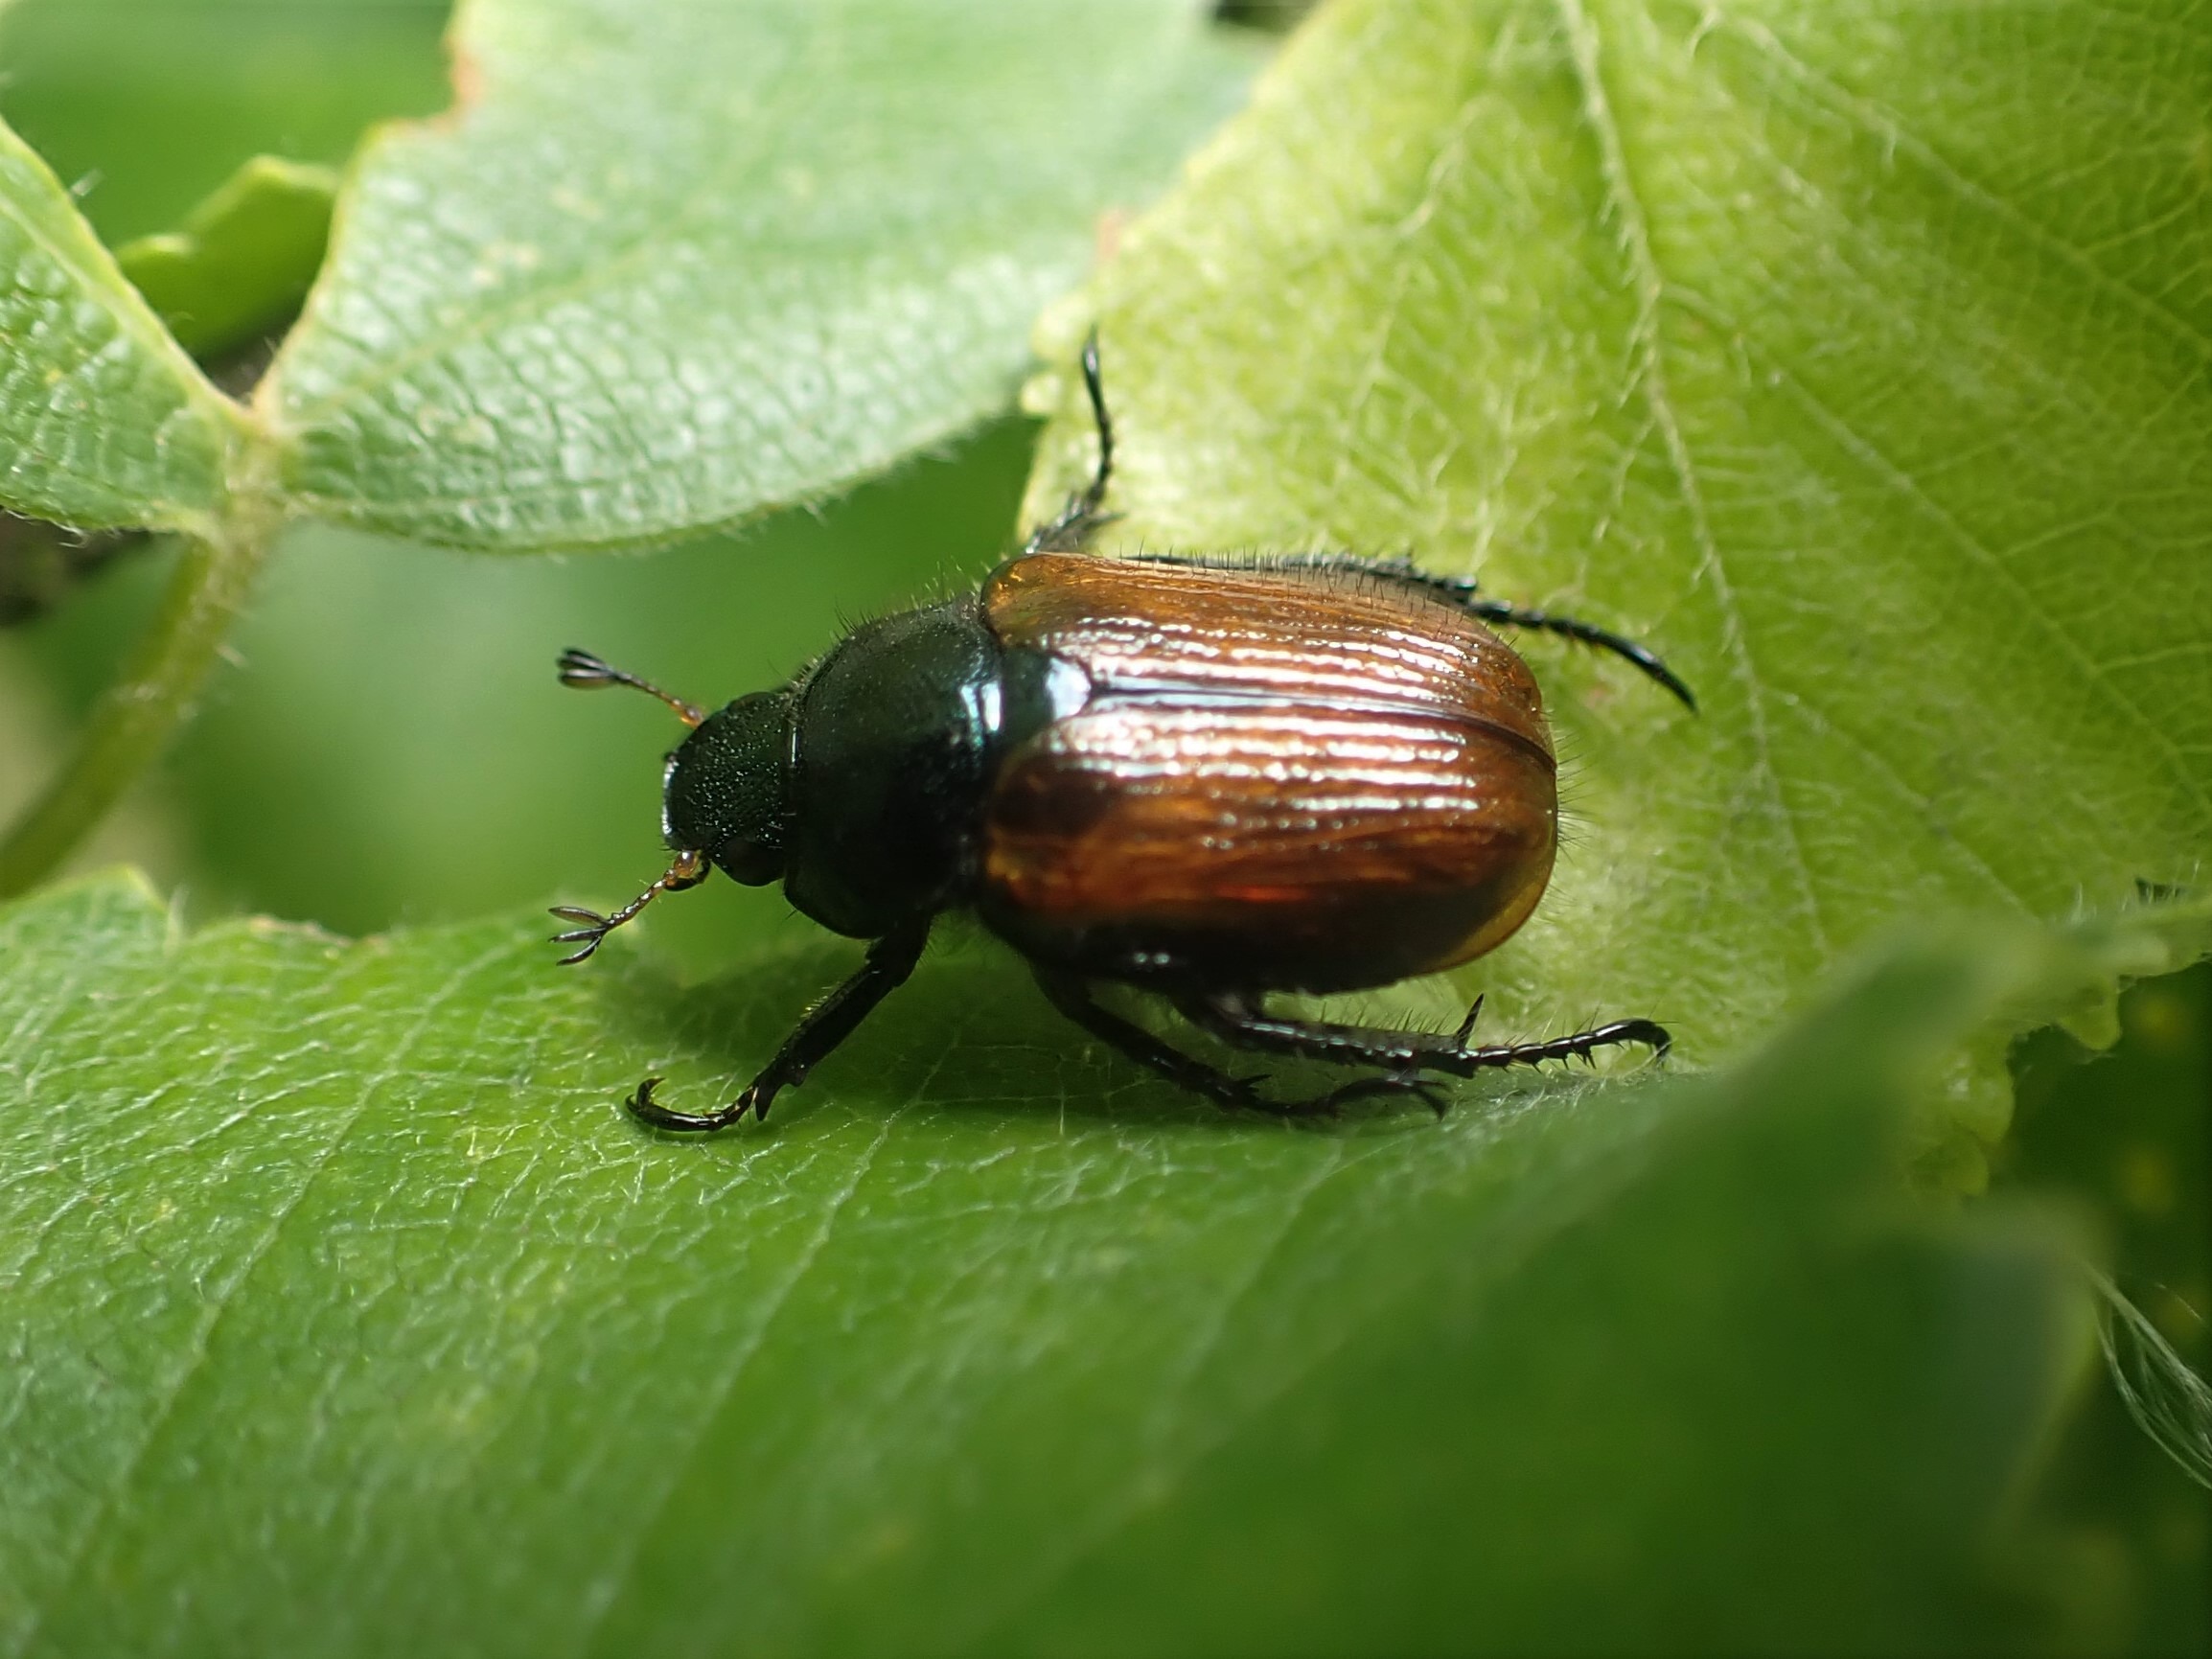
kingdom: Animalia
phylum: Arthropoda
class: Insecta
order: Coleoptera
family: Scarabaeidae
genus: Phyllopertha
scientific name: Phyllopertha horticola
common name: Gåsebille
